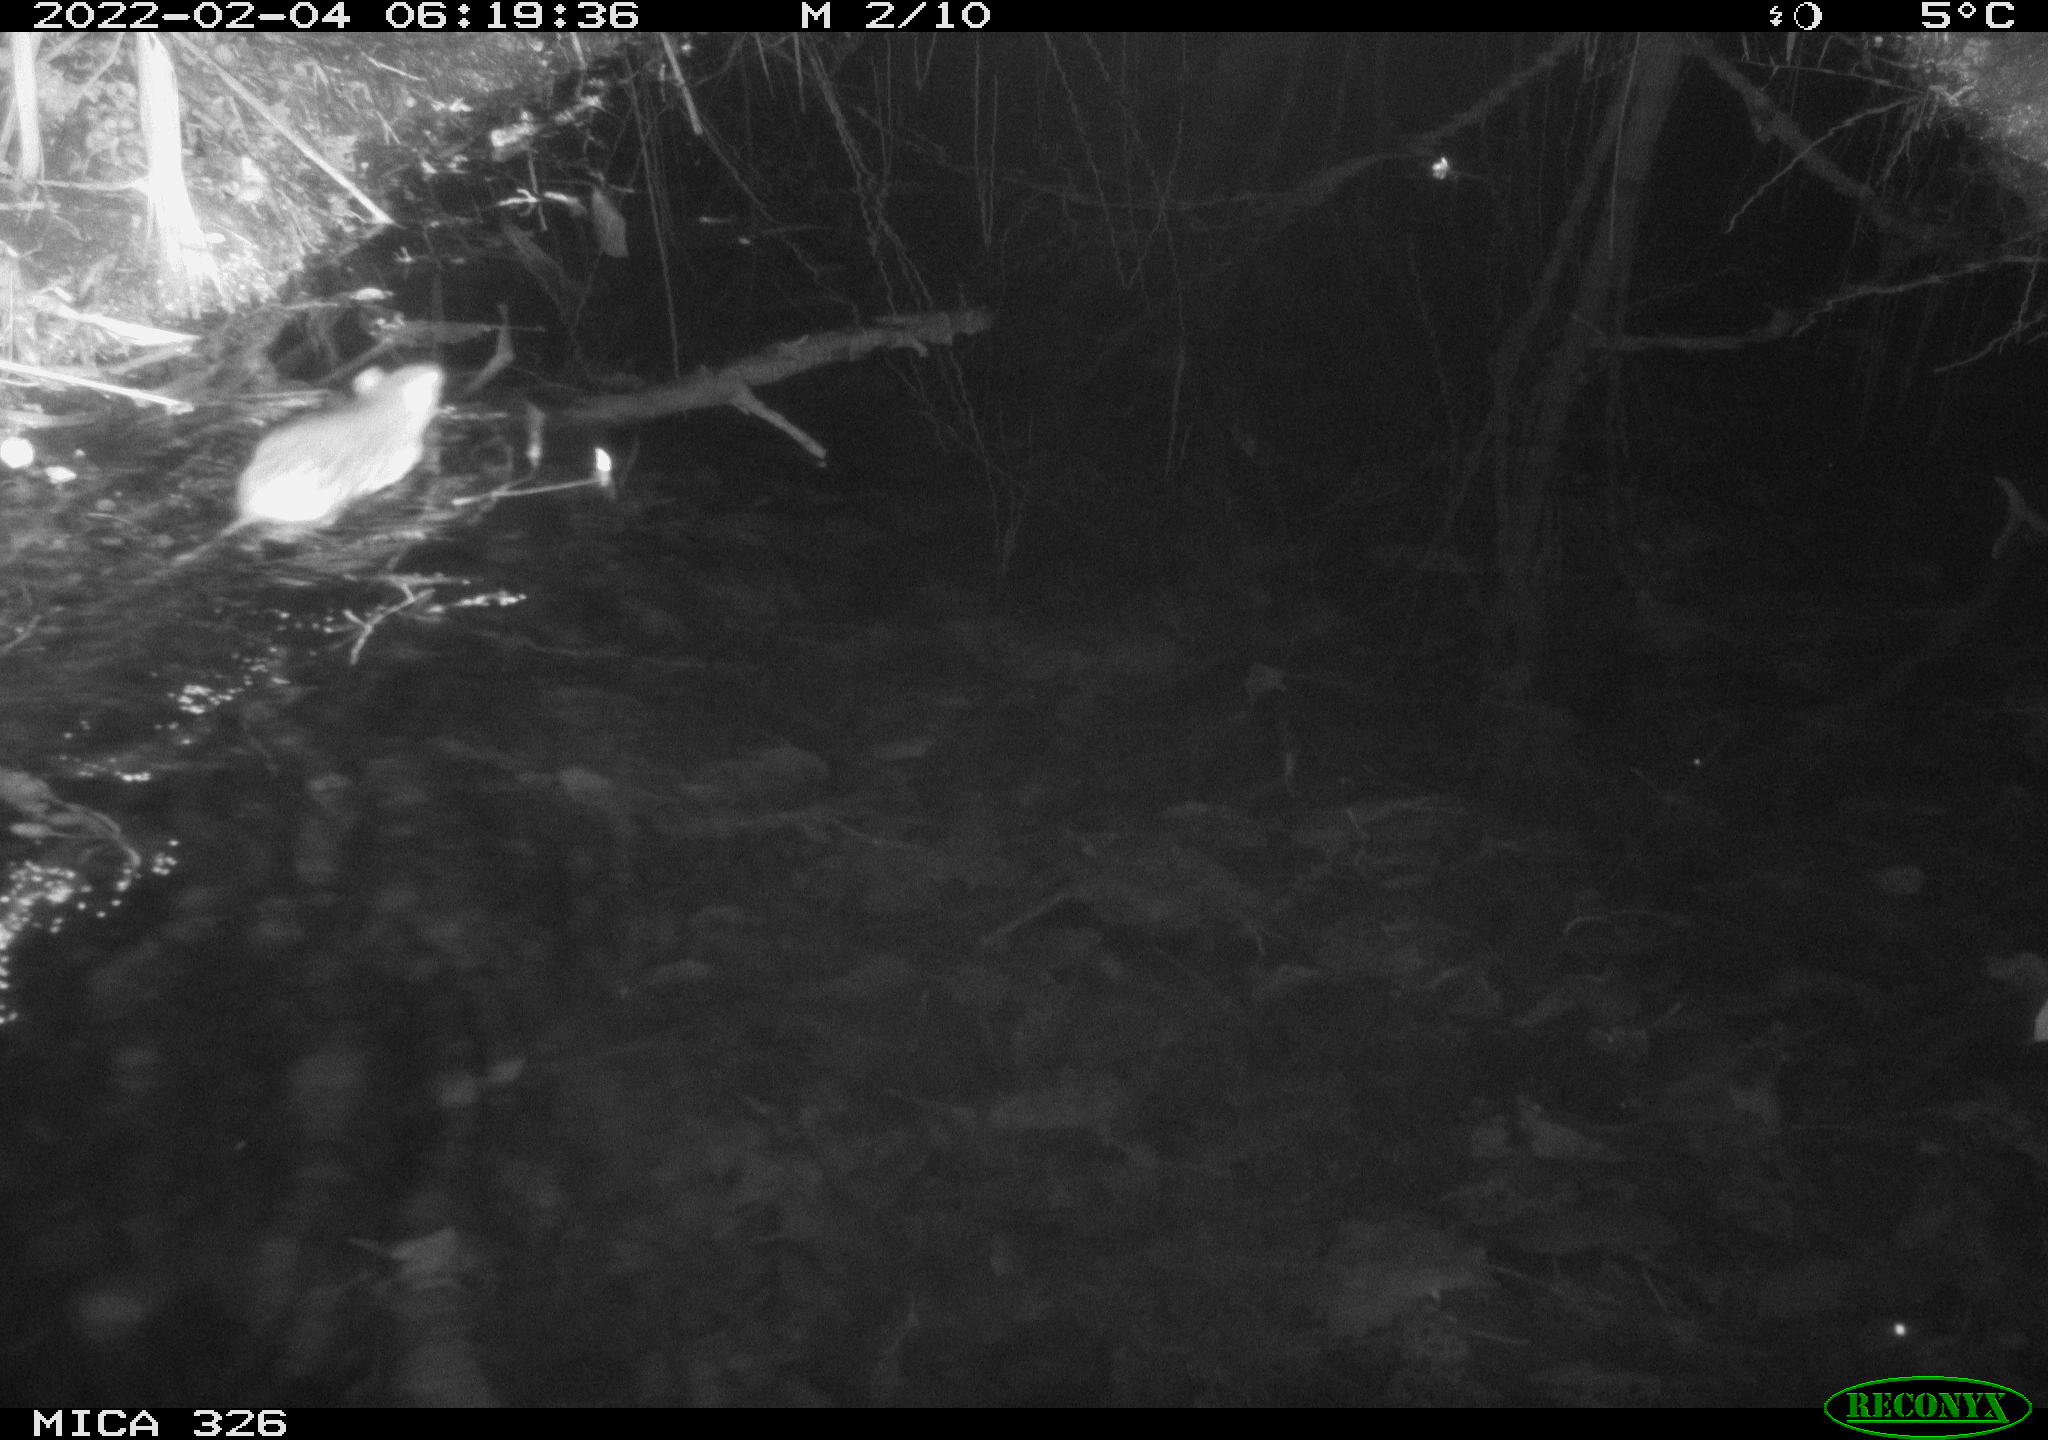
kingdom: Animalia
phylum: Chordata
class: Mammalia
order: Rodentia
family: Muridae
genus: Rattus
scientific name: Rattus norvegicus
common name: Brown rat
